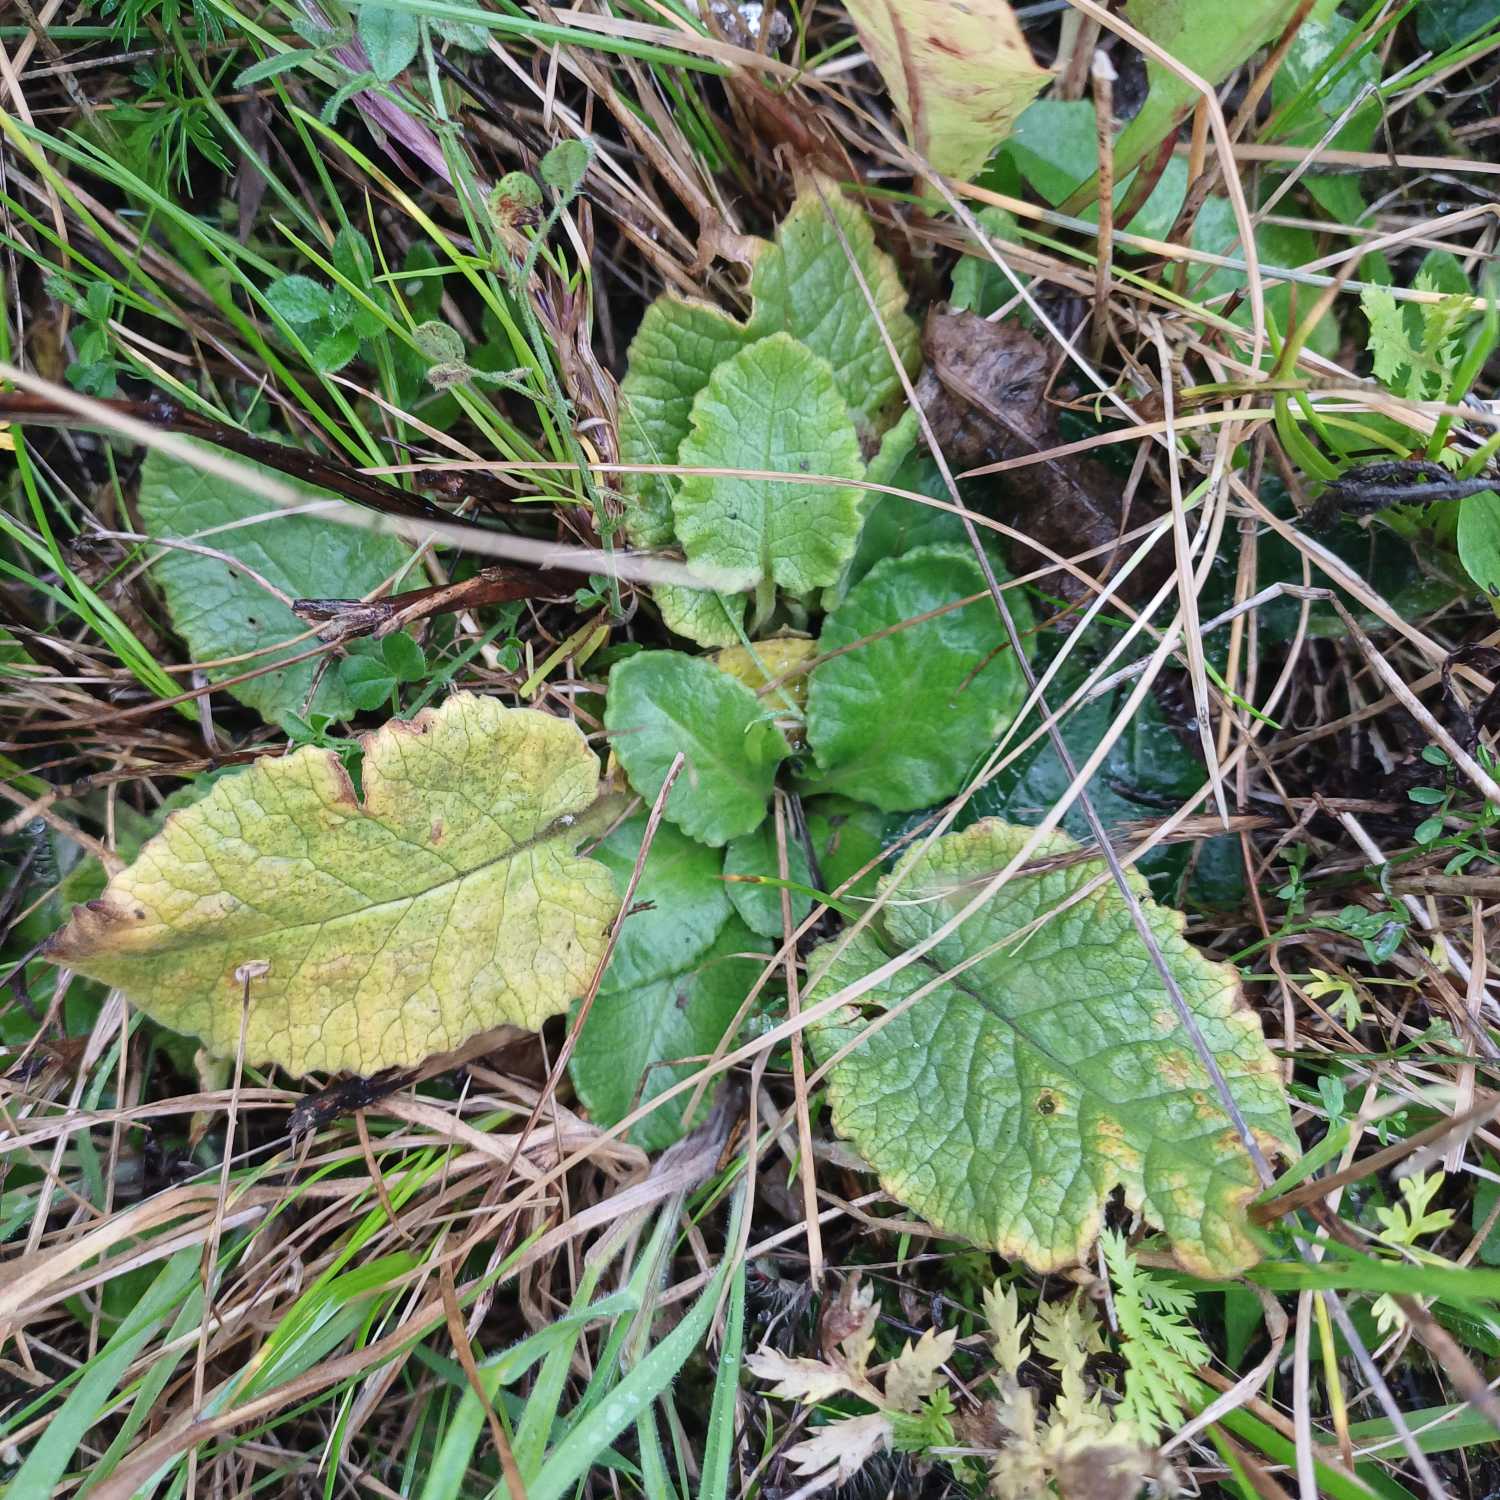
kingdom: Plantae
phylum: Tracheophyta
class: Magnoliopsida
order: Ericales
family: Primulaceae
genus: Primula
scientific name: Primula veris
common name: Hulkravet kodriver
